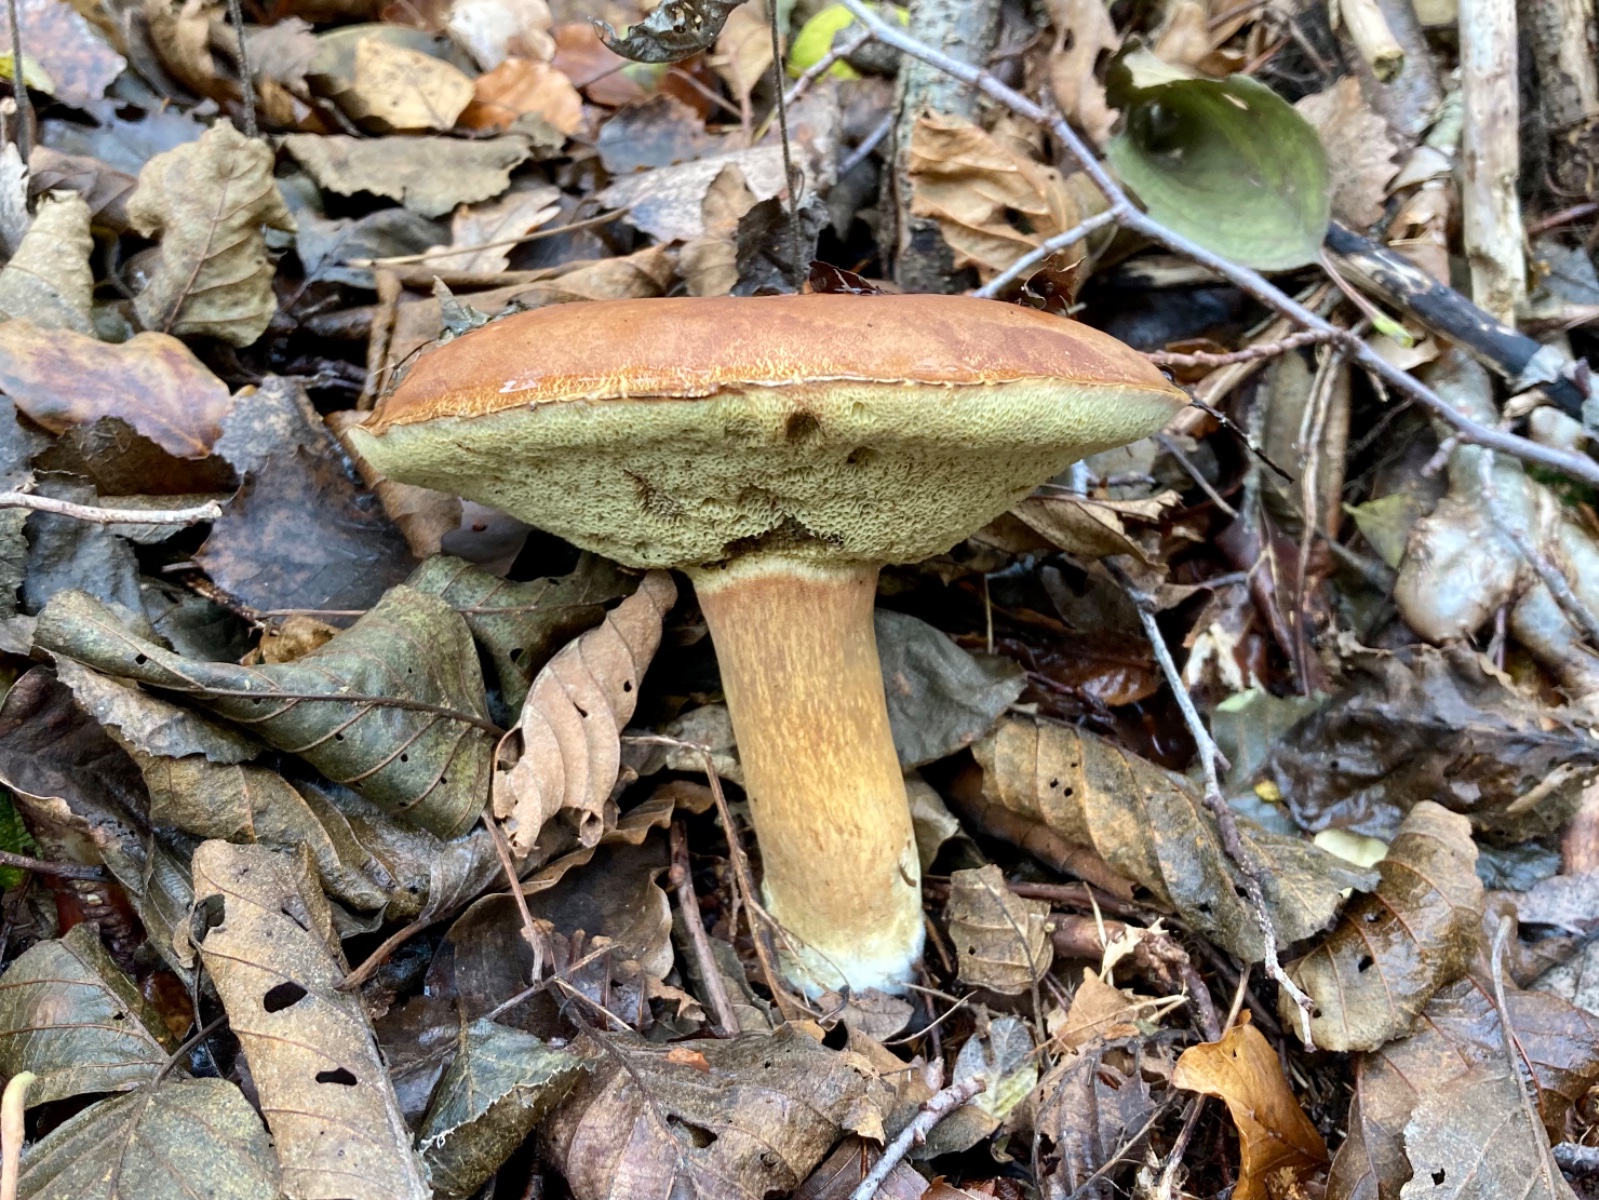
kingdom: Fungi
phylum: Basidiomycota
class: Agaricomycetes
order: Boletales
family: Boletaceae
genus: Imleria
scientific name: Imleria badia
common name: brunstokket rørhat
